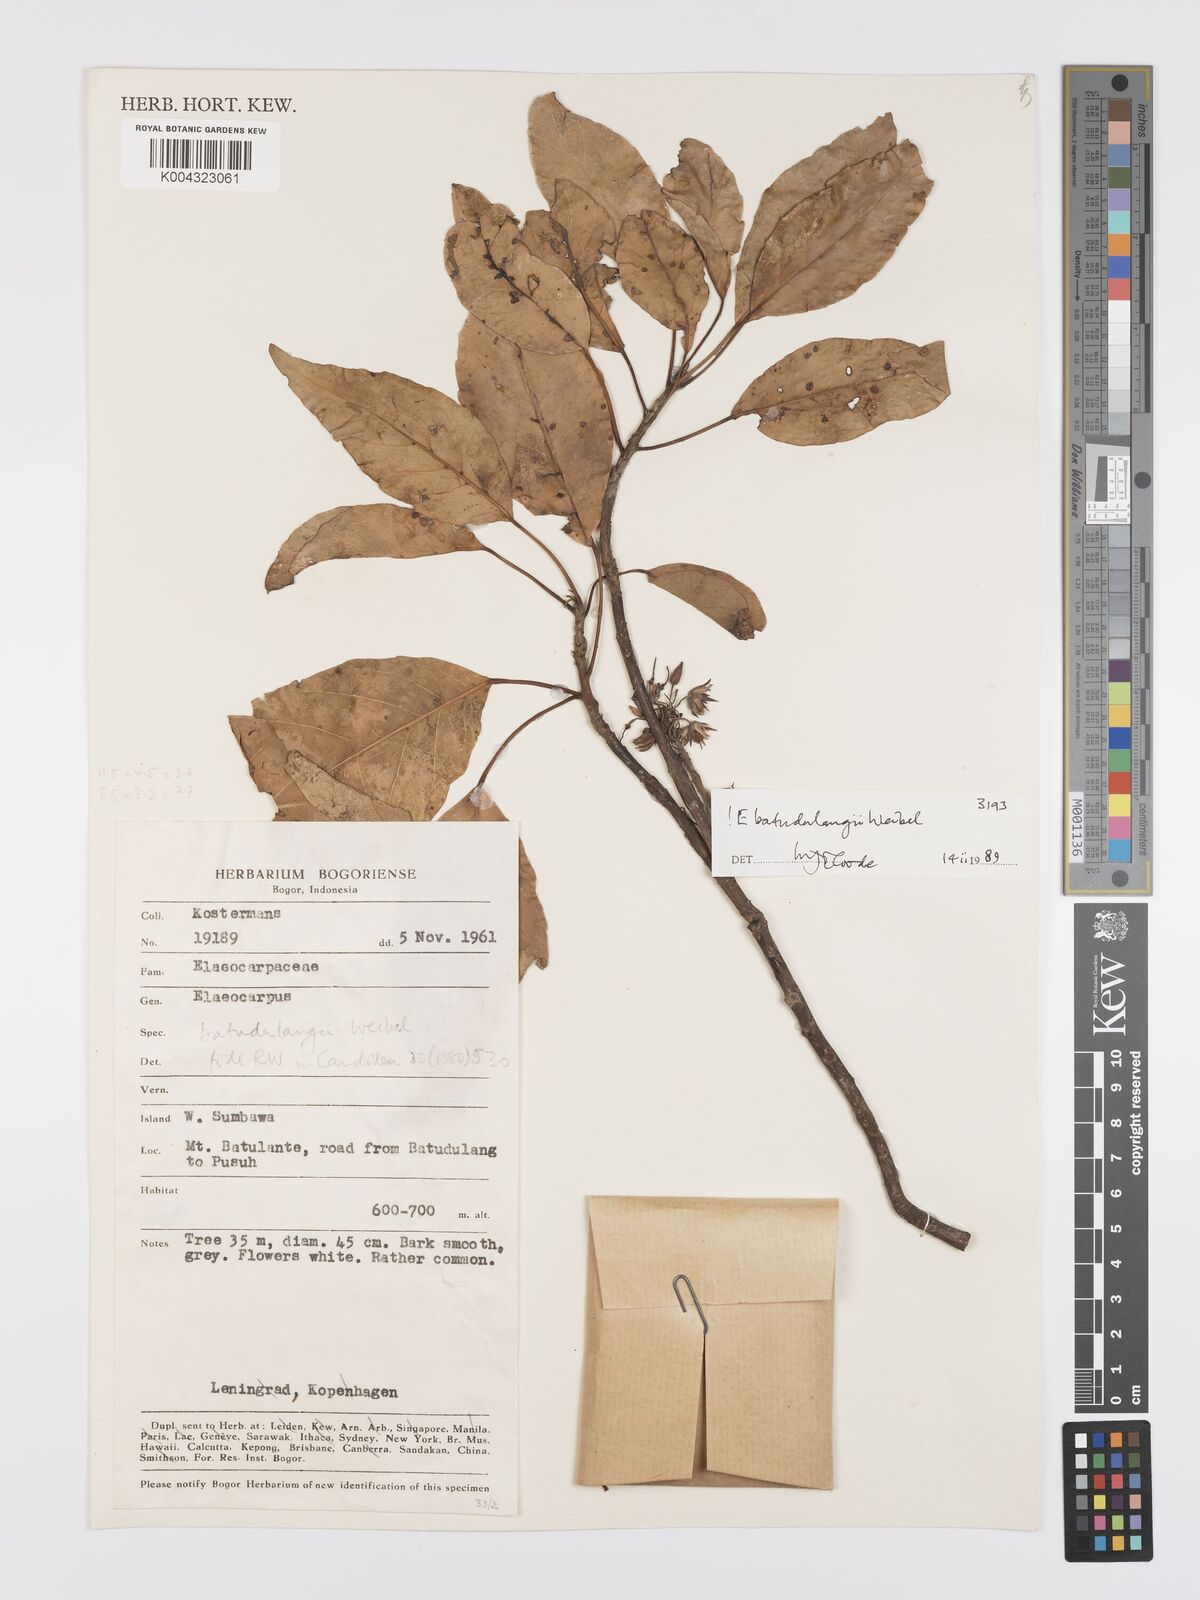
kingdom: Plantae
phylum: Tracheophyta
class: Magnoliopsida
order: Oxalidales
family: Elaeocarpaceae
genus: Elaeocarpus
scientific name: Elaeocarpus batudulangii
